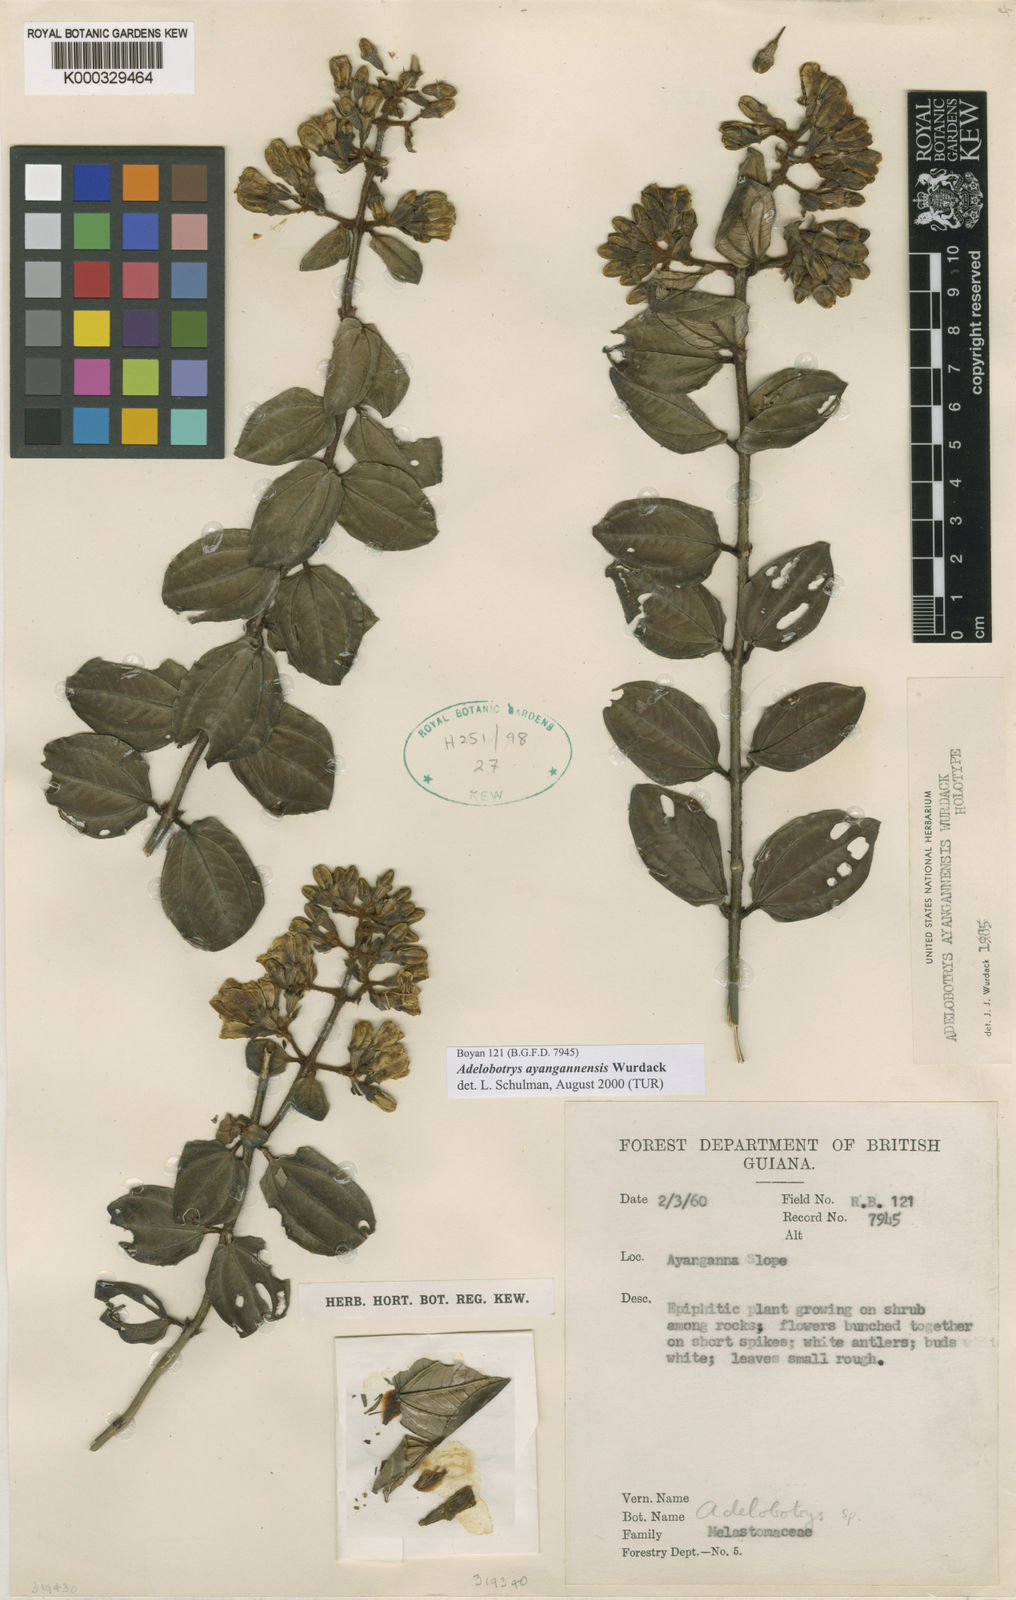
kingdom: Plantae
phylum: Tracheophyta
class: Magnoliopsida
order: Myrtales
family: Melastomataceae
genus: Adelobotrys
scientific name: Adelobotrys ayangannensis
